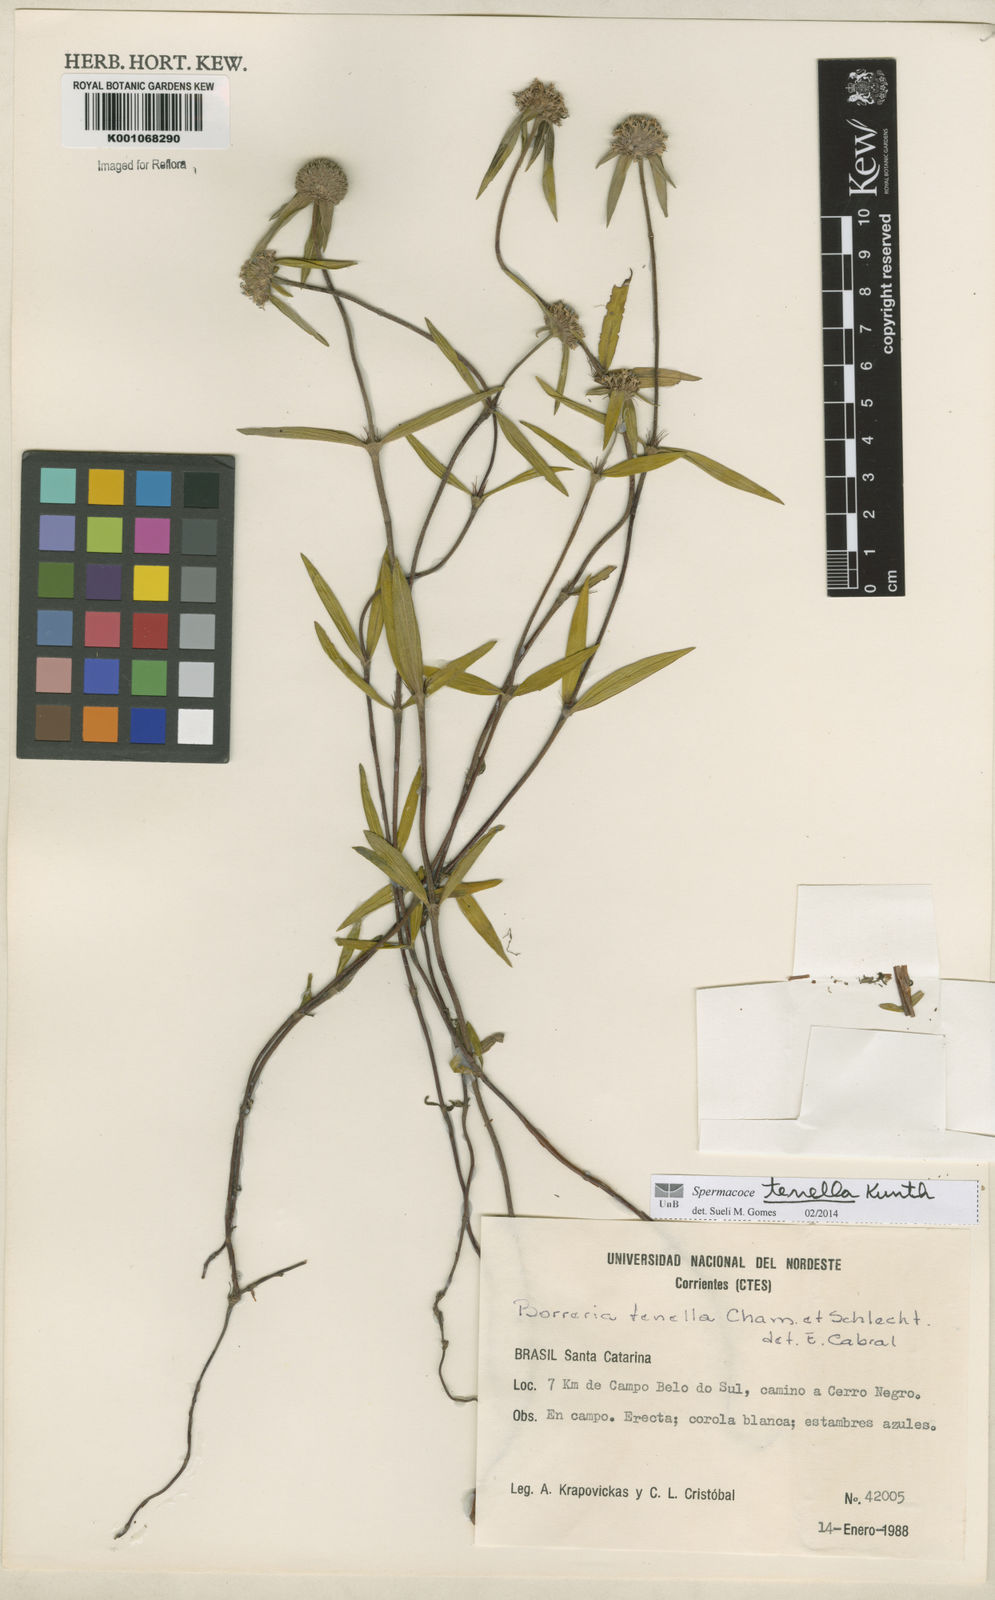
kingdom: Plantae
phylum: Tracheophyta
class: Magnoliopsida
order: Gentianales
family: Rubiaceae
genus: Spermacoce
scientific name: Spermacoce orinocensis
